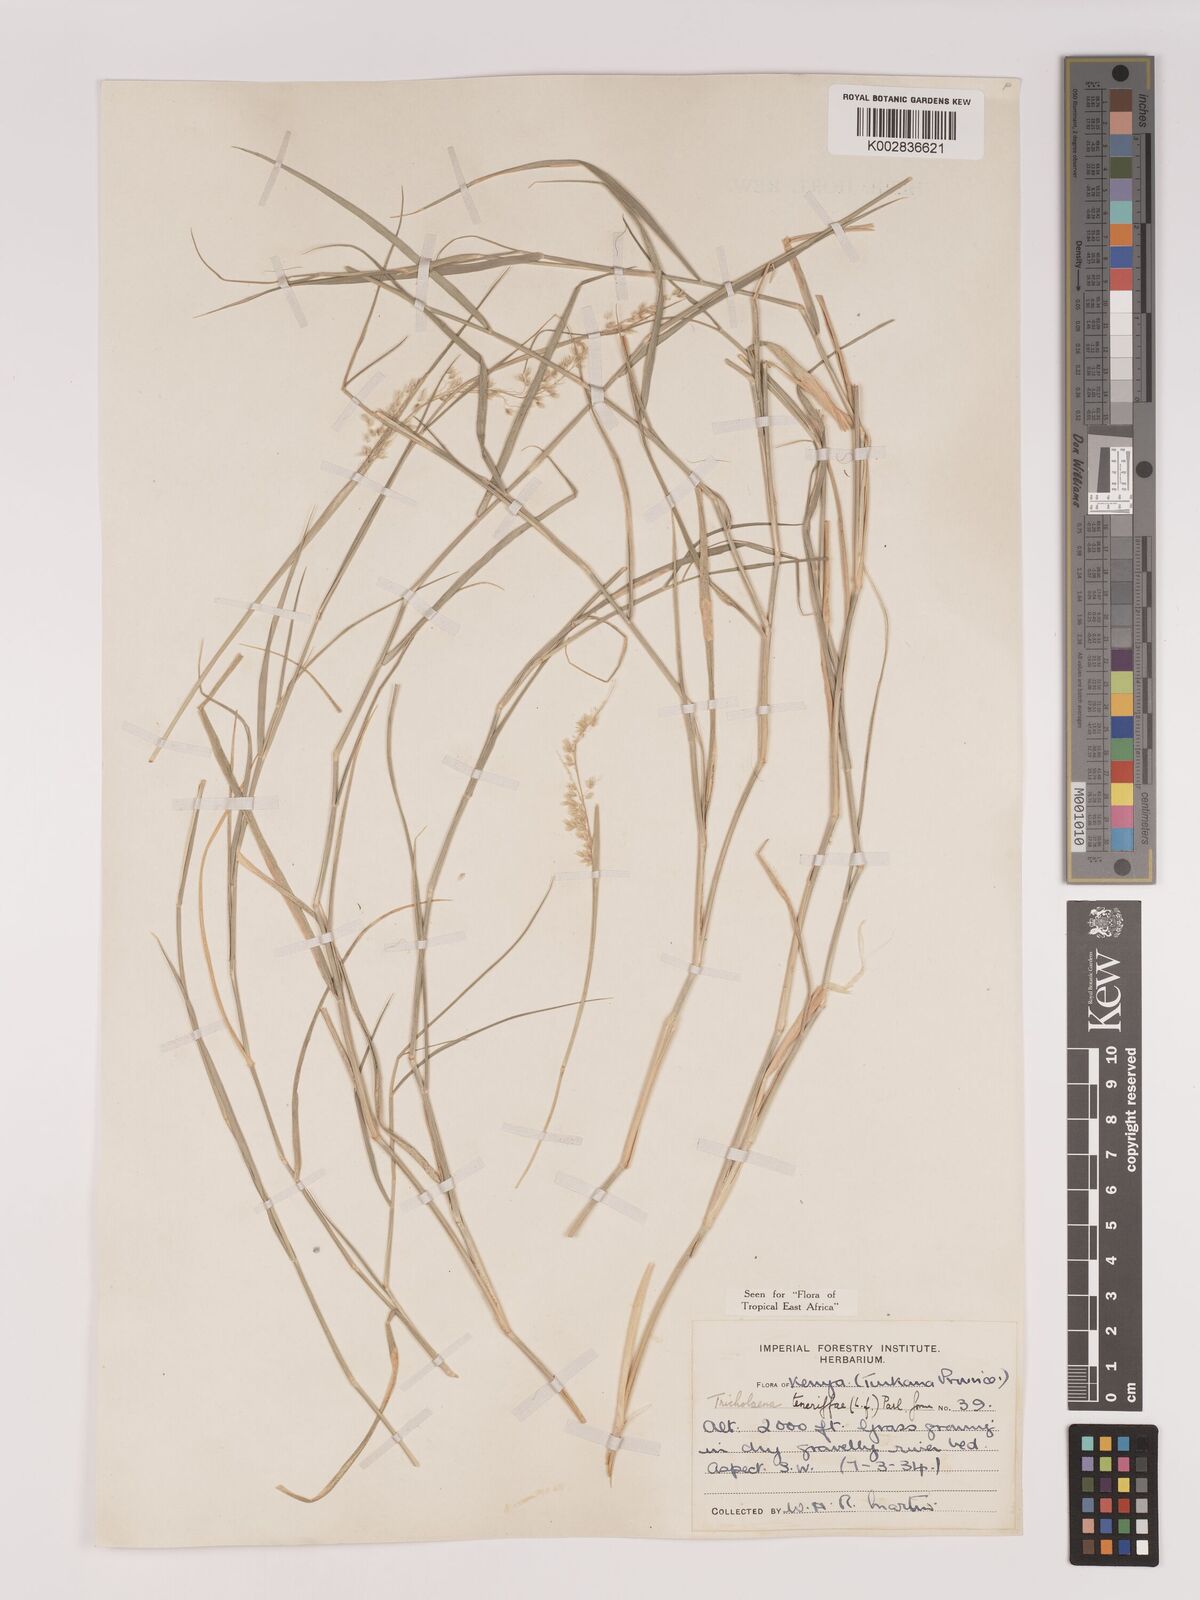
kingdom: Plantae
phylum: Tracheophyta
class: Liliopsida
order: Poales
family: Poaceae
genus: Tricholaena
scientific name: Tricholaena teneriffae
